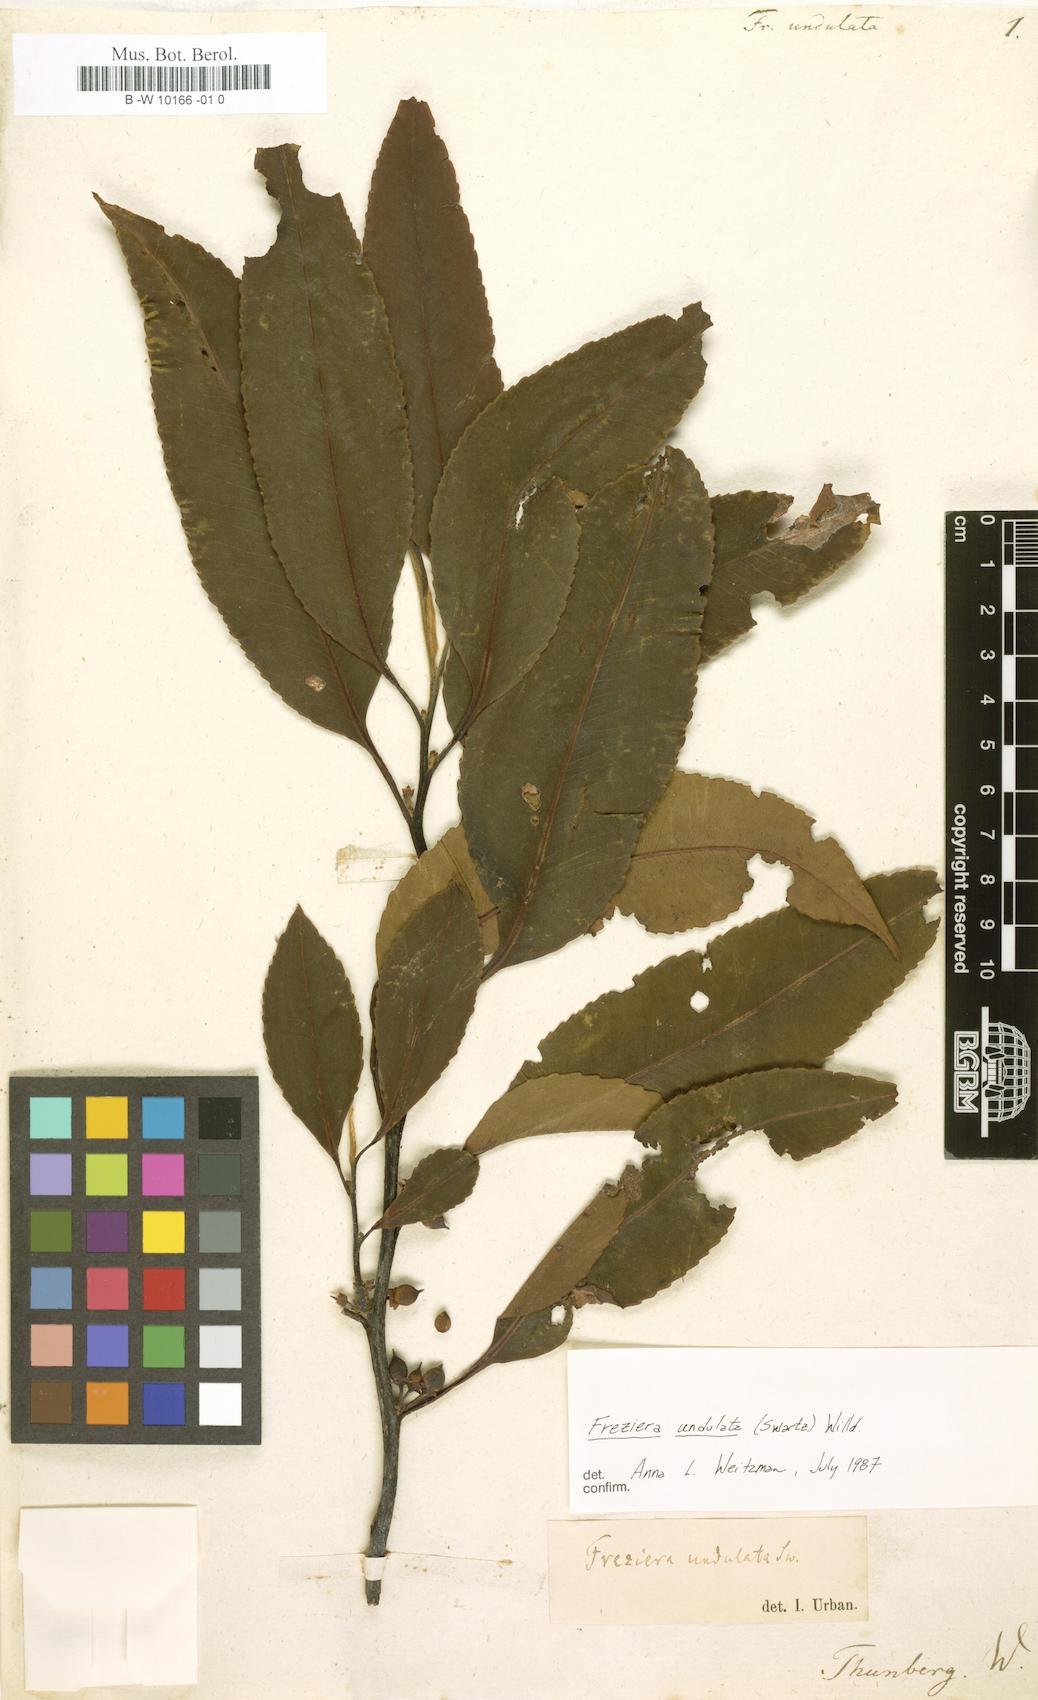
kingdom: Plantae
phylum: Tracheophyta
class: Magnoliopsida
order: Ericales
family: Pentaphylacaceae
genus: Freziera
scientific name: Freziera undulata
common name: Mountain mahogany
